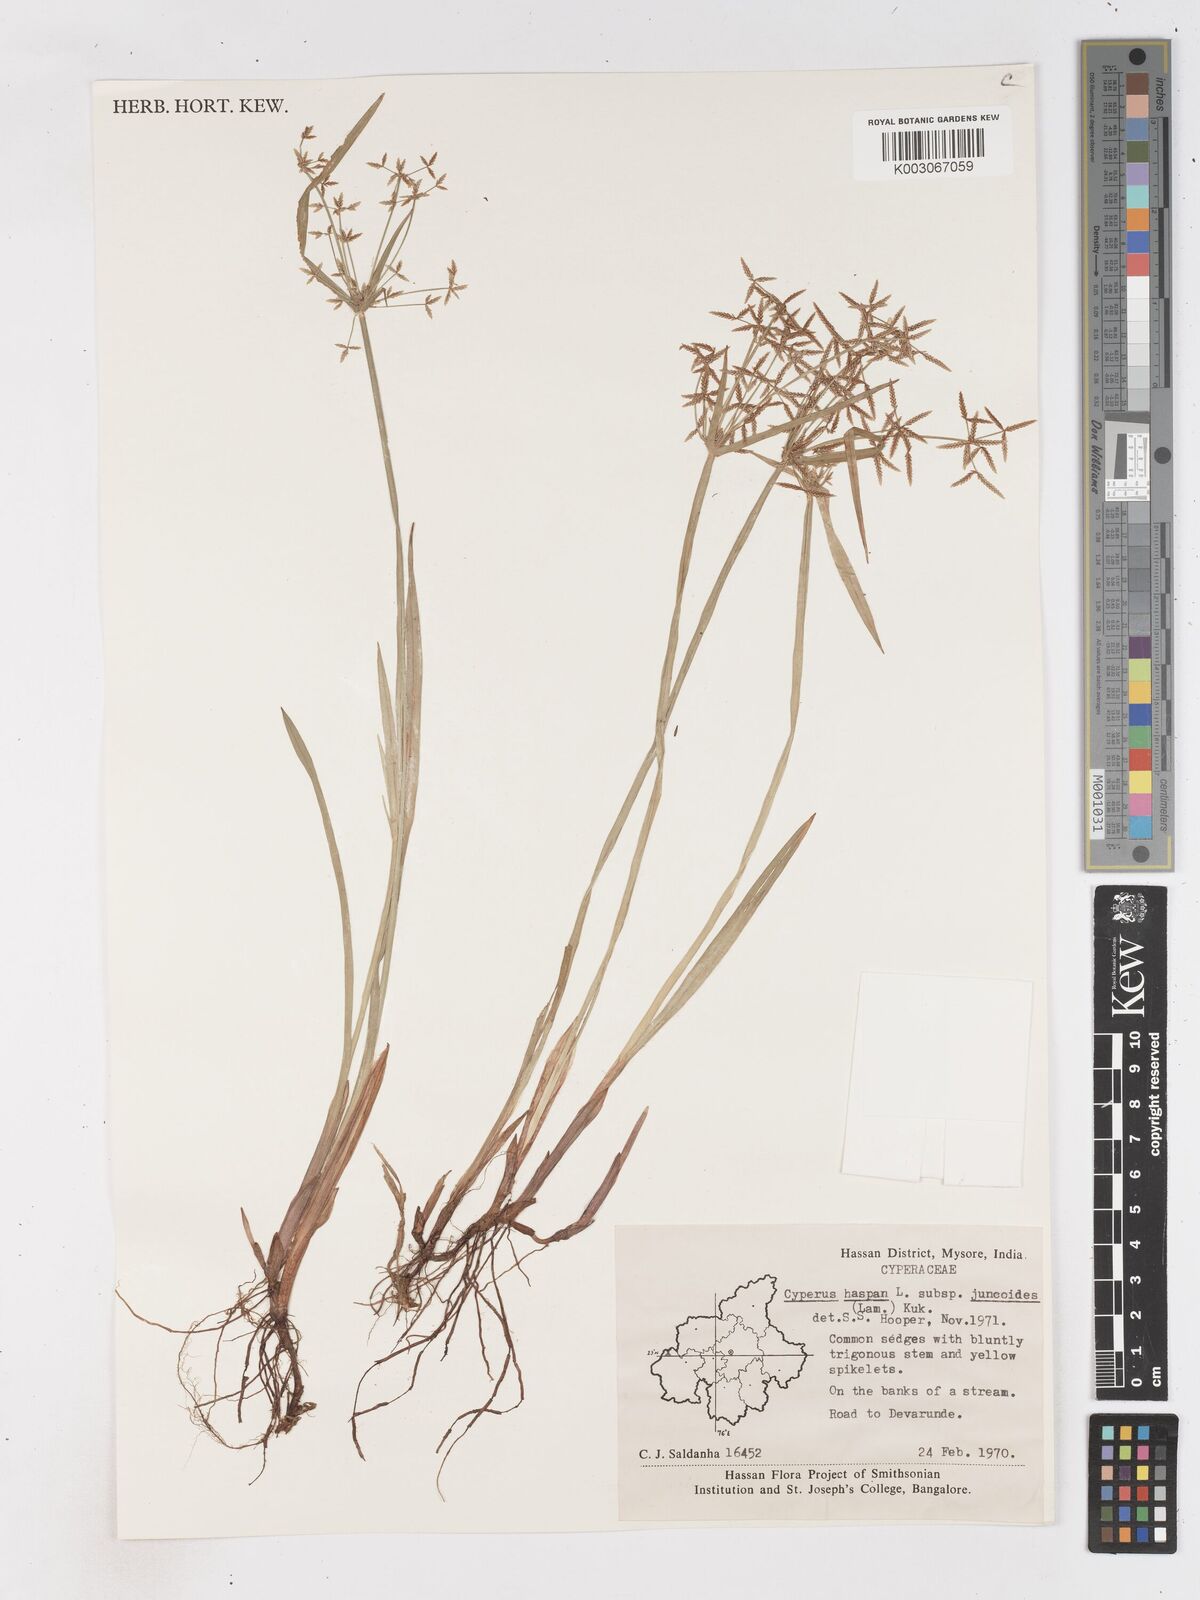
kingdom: Plantae
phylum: Tracheophyta
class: Liliopsida
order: Poales
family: Cyperaceae
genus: Cyperus
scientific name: Cyperus haspan
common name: Haspan flatsedge
